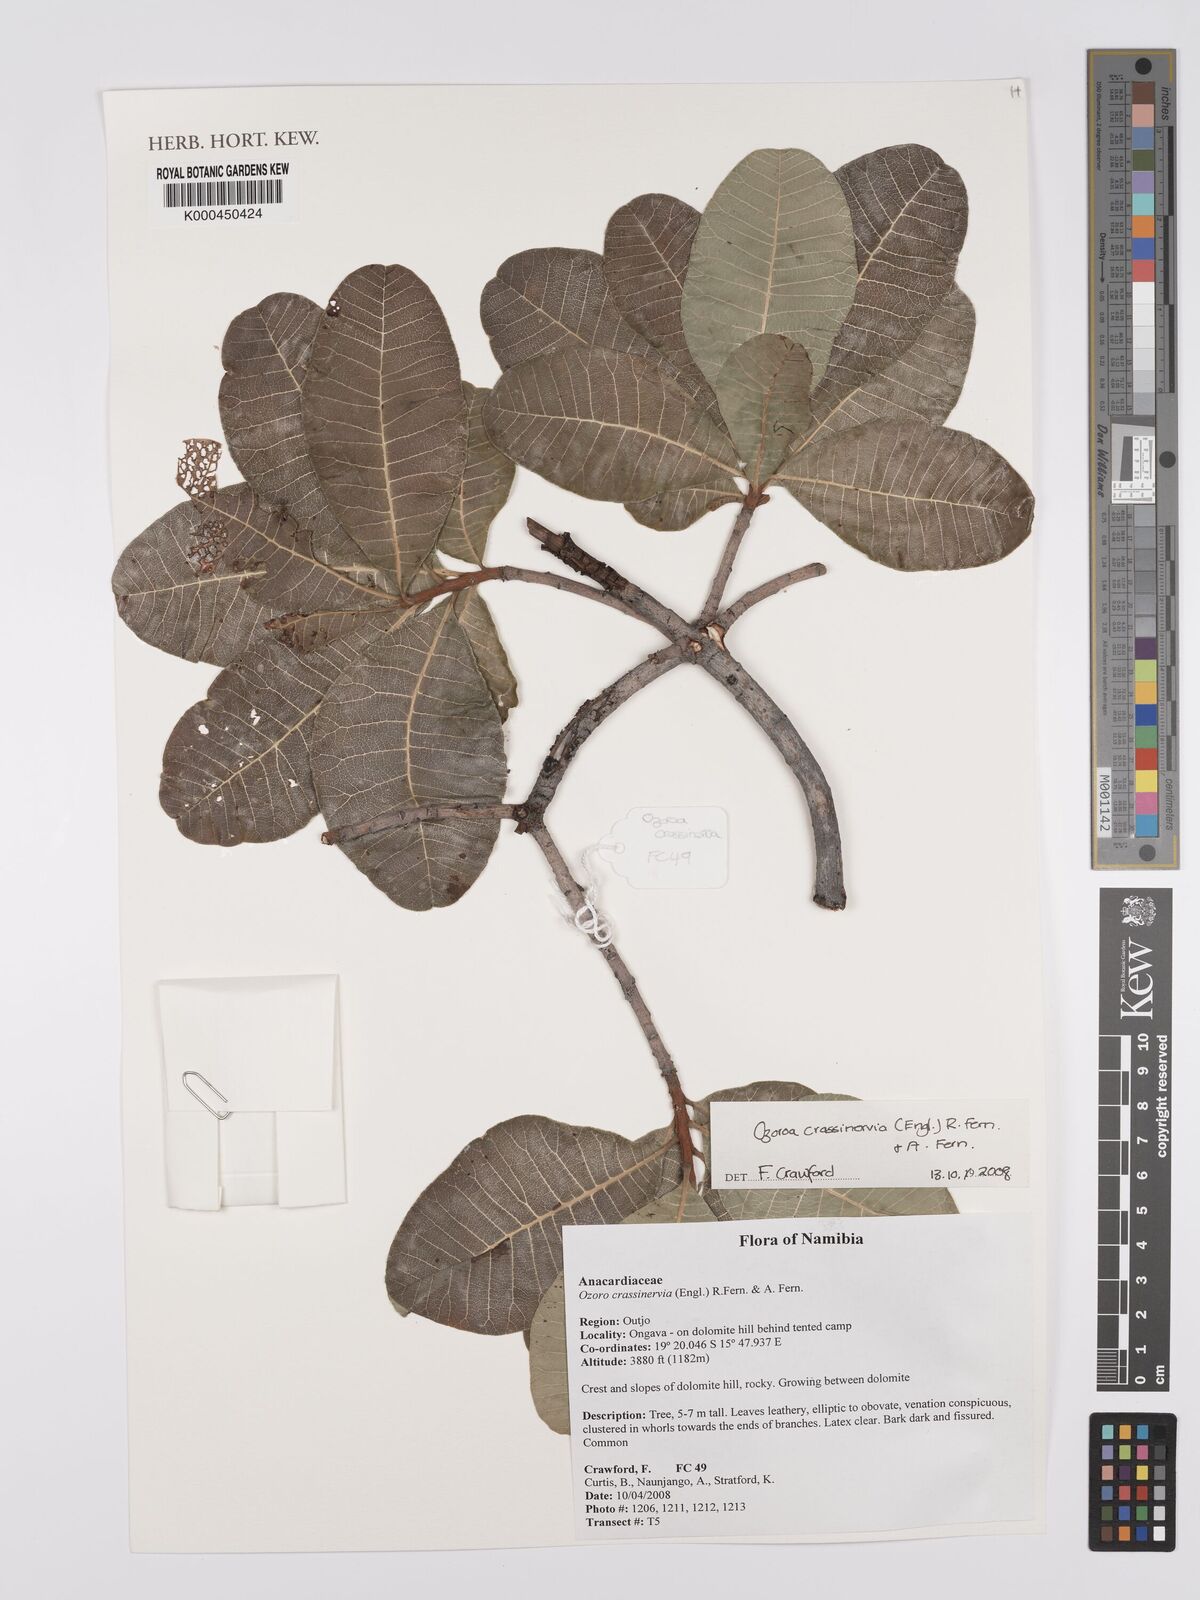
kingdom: Plantae
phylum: Tracheophyta
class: Magnoliopsida
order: Sapindales
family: Anacardiaceae
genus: Ozoroa
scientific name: Ozoroa crassinervia
